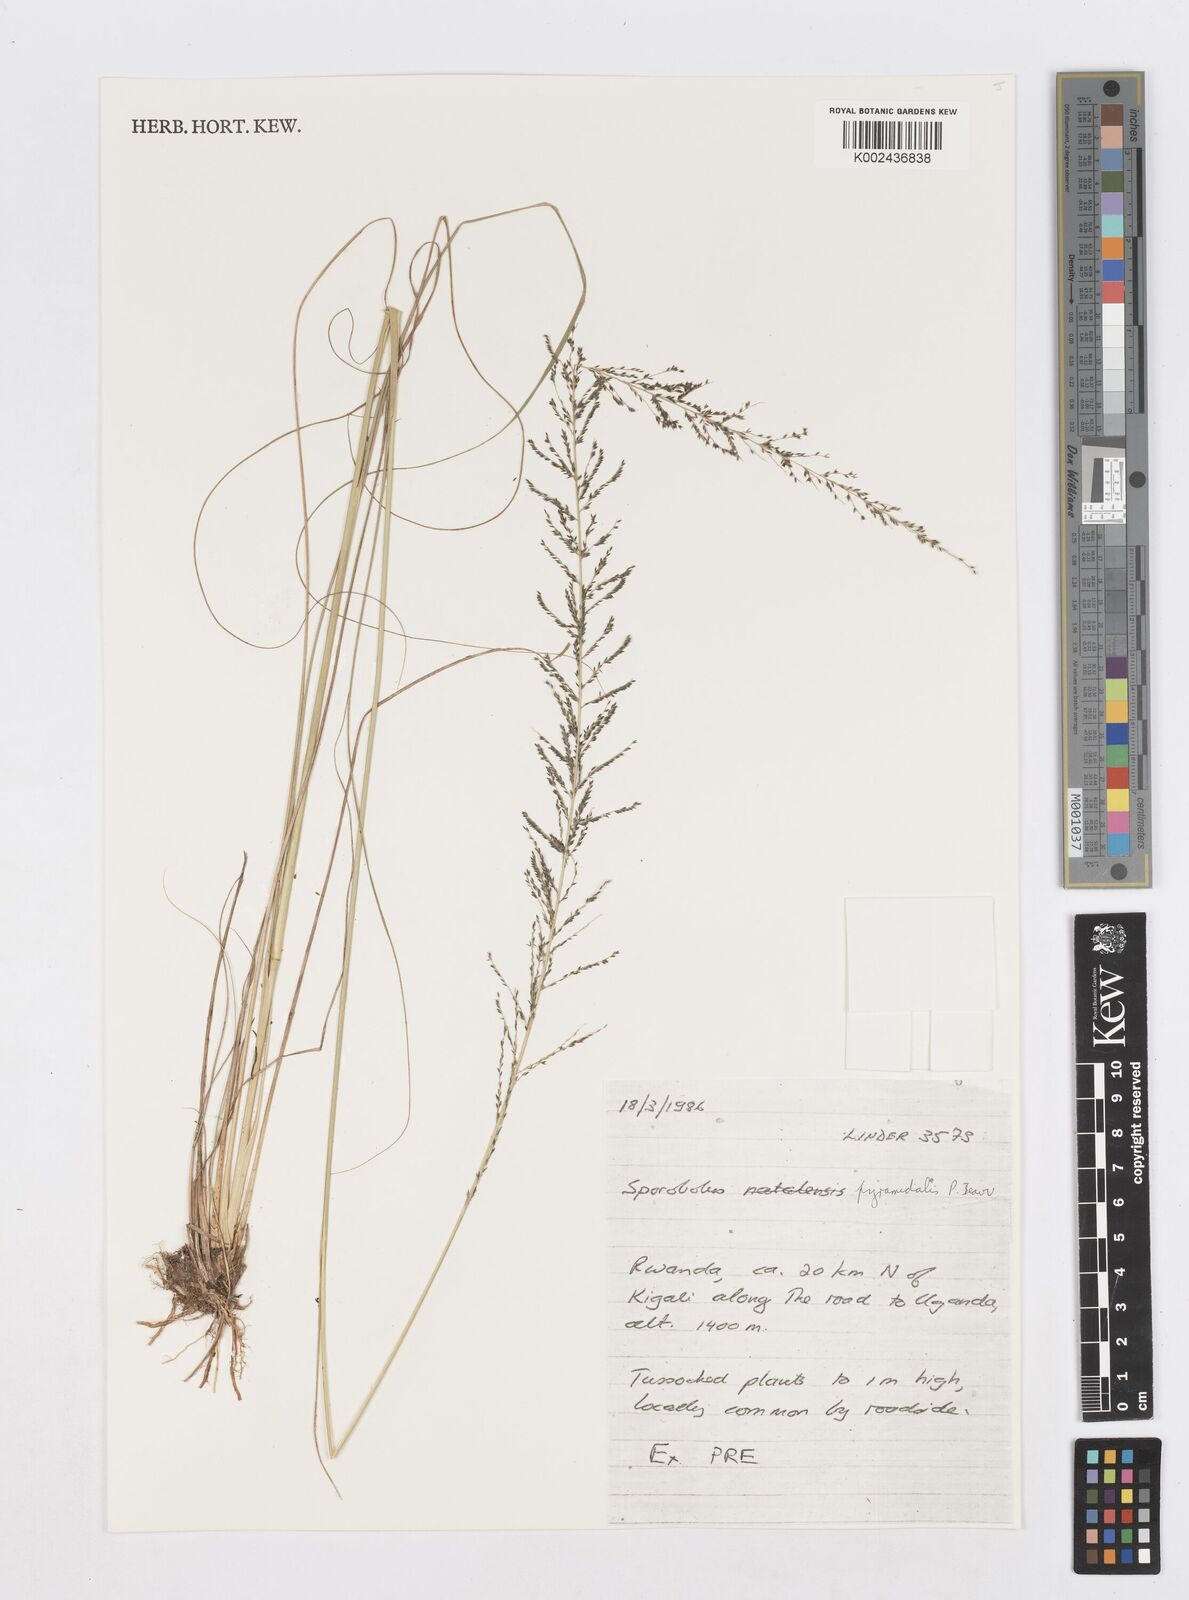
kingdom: Plantae
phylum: Tracheophyta
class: Liliopsida
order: Poales
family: Poaceae
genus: Sporobolus
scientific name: Sporobolus pyramidalis
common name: West indian dropseed
